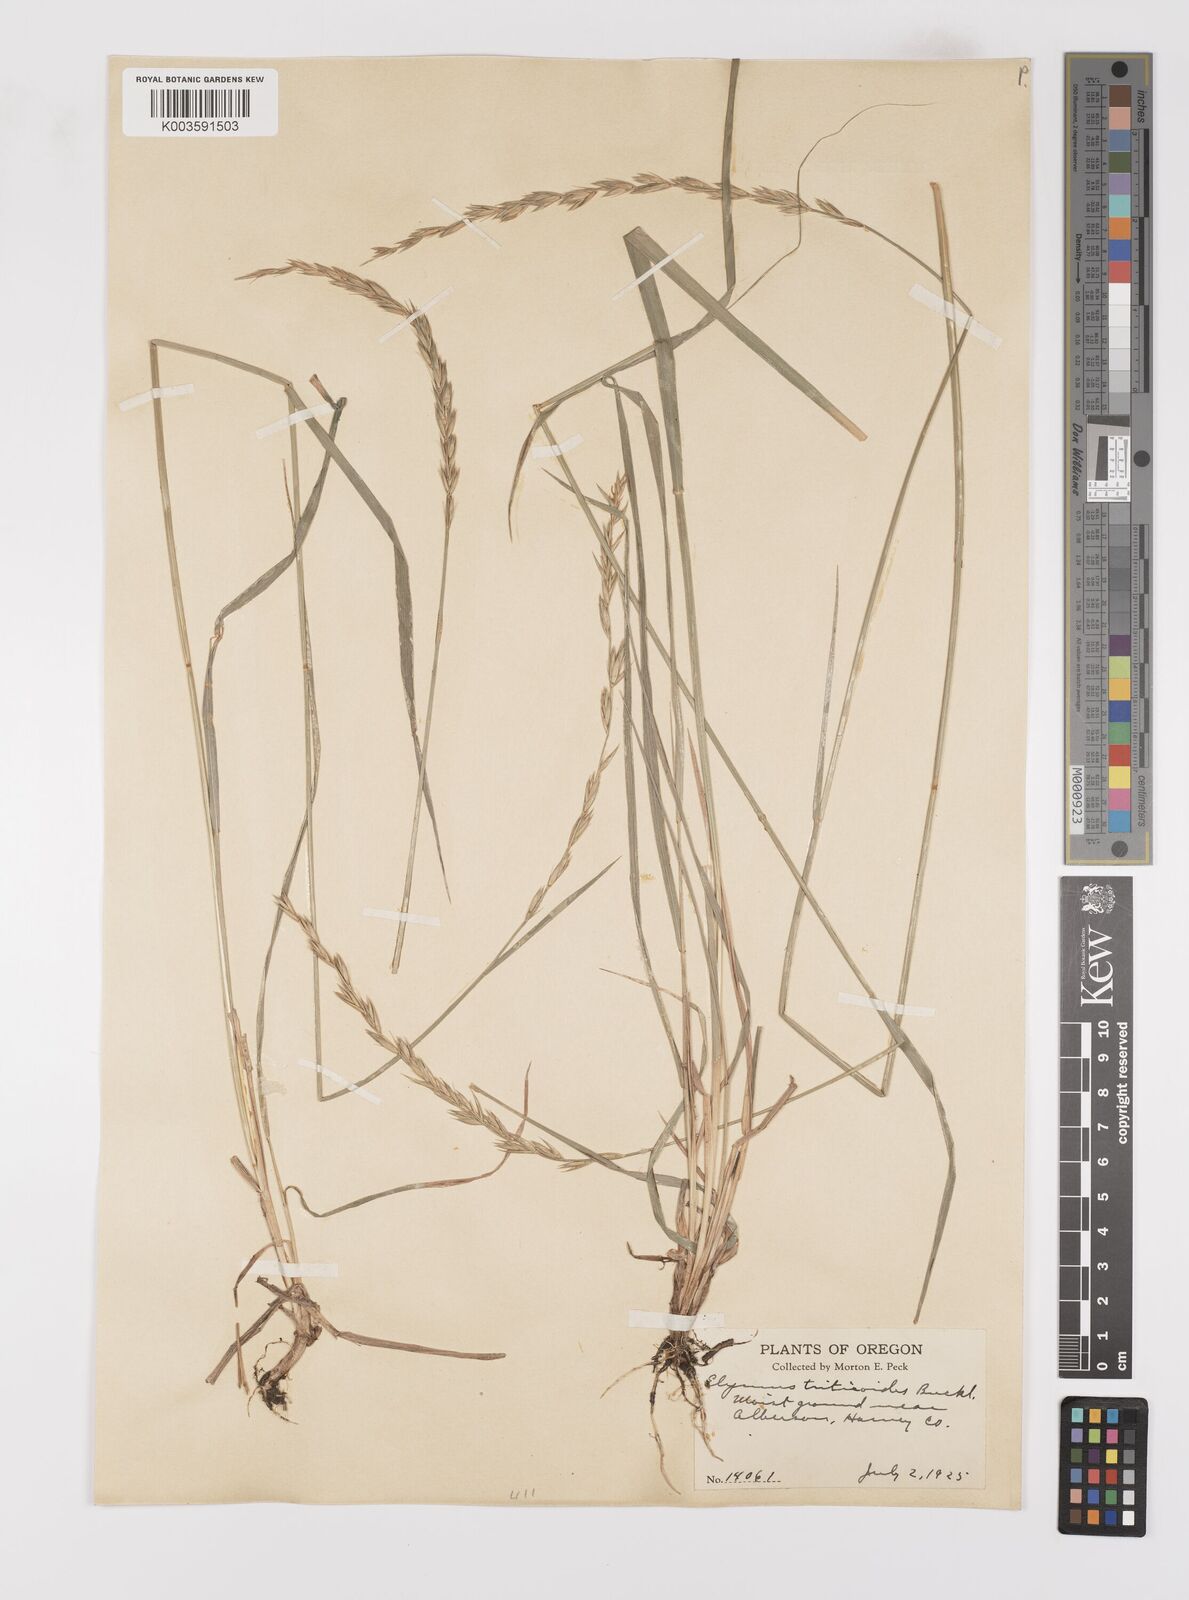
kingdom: Plantae
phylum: Tracheophyta
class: Liliopsida
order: Poales
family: Poaceae
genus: Leymus
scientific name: Leymus triticoides
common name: Beardless wild rye
